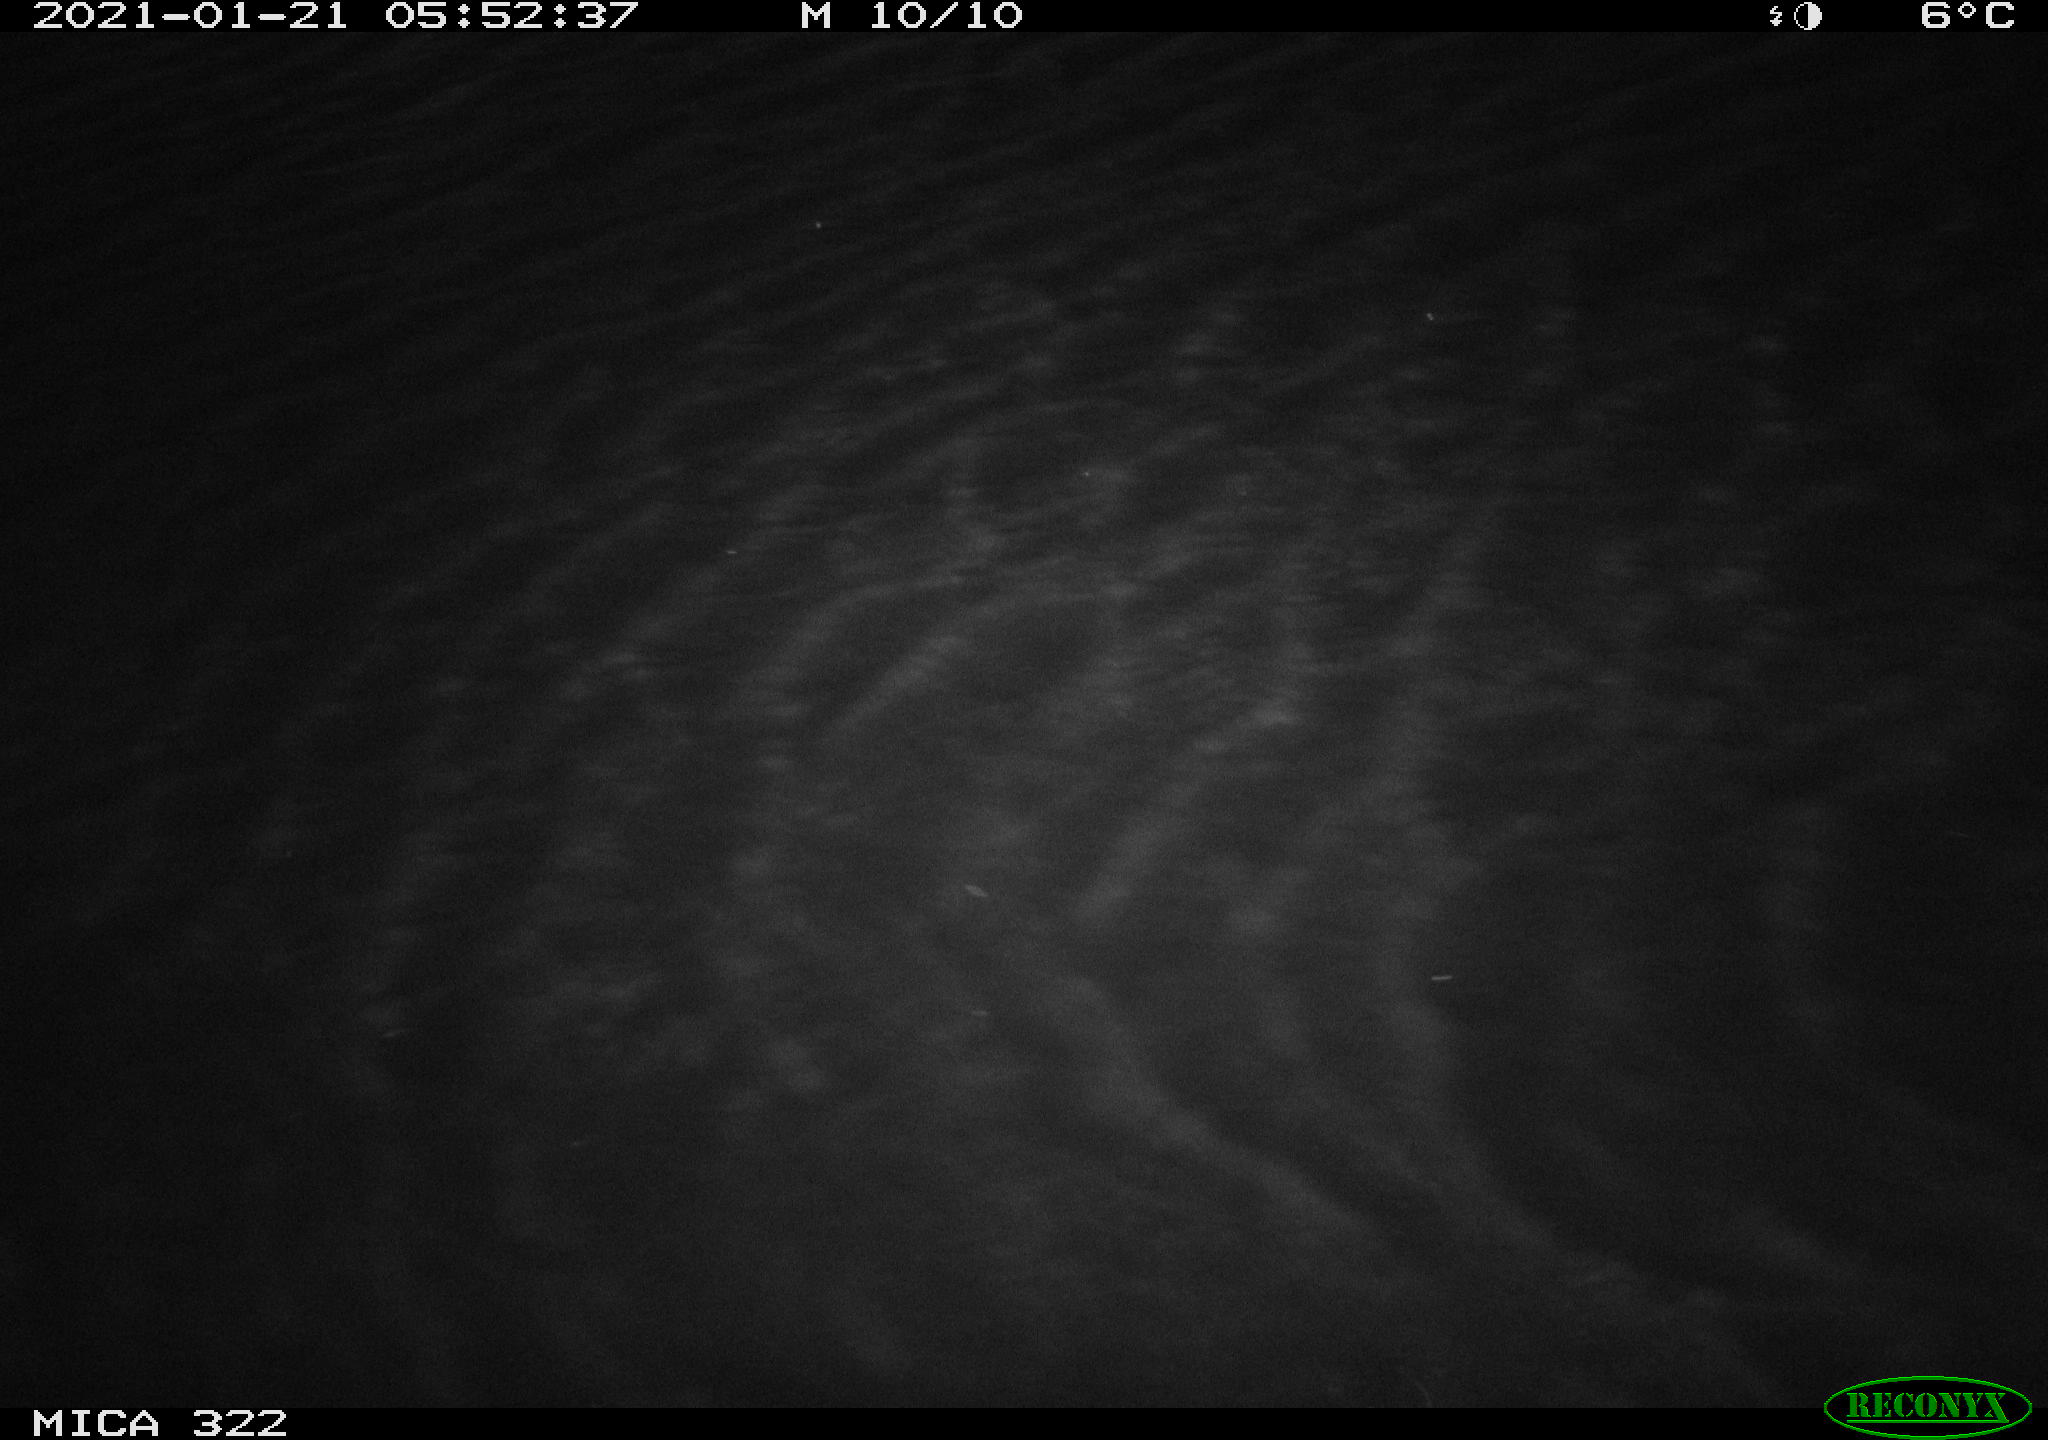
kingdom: Animalia
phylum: Chordata
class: Mammalia
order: Rodentia
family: Muridae
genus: Rattus
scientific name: Rattus norvegicus
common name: Brown rat
